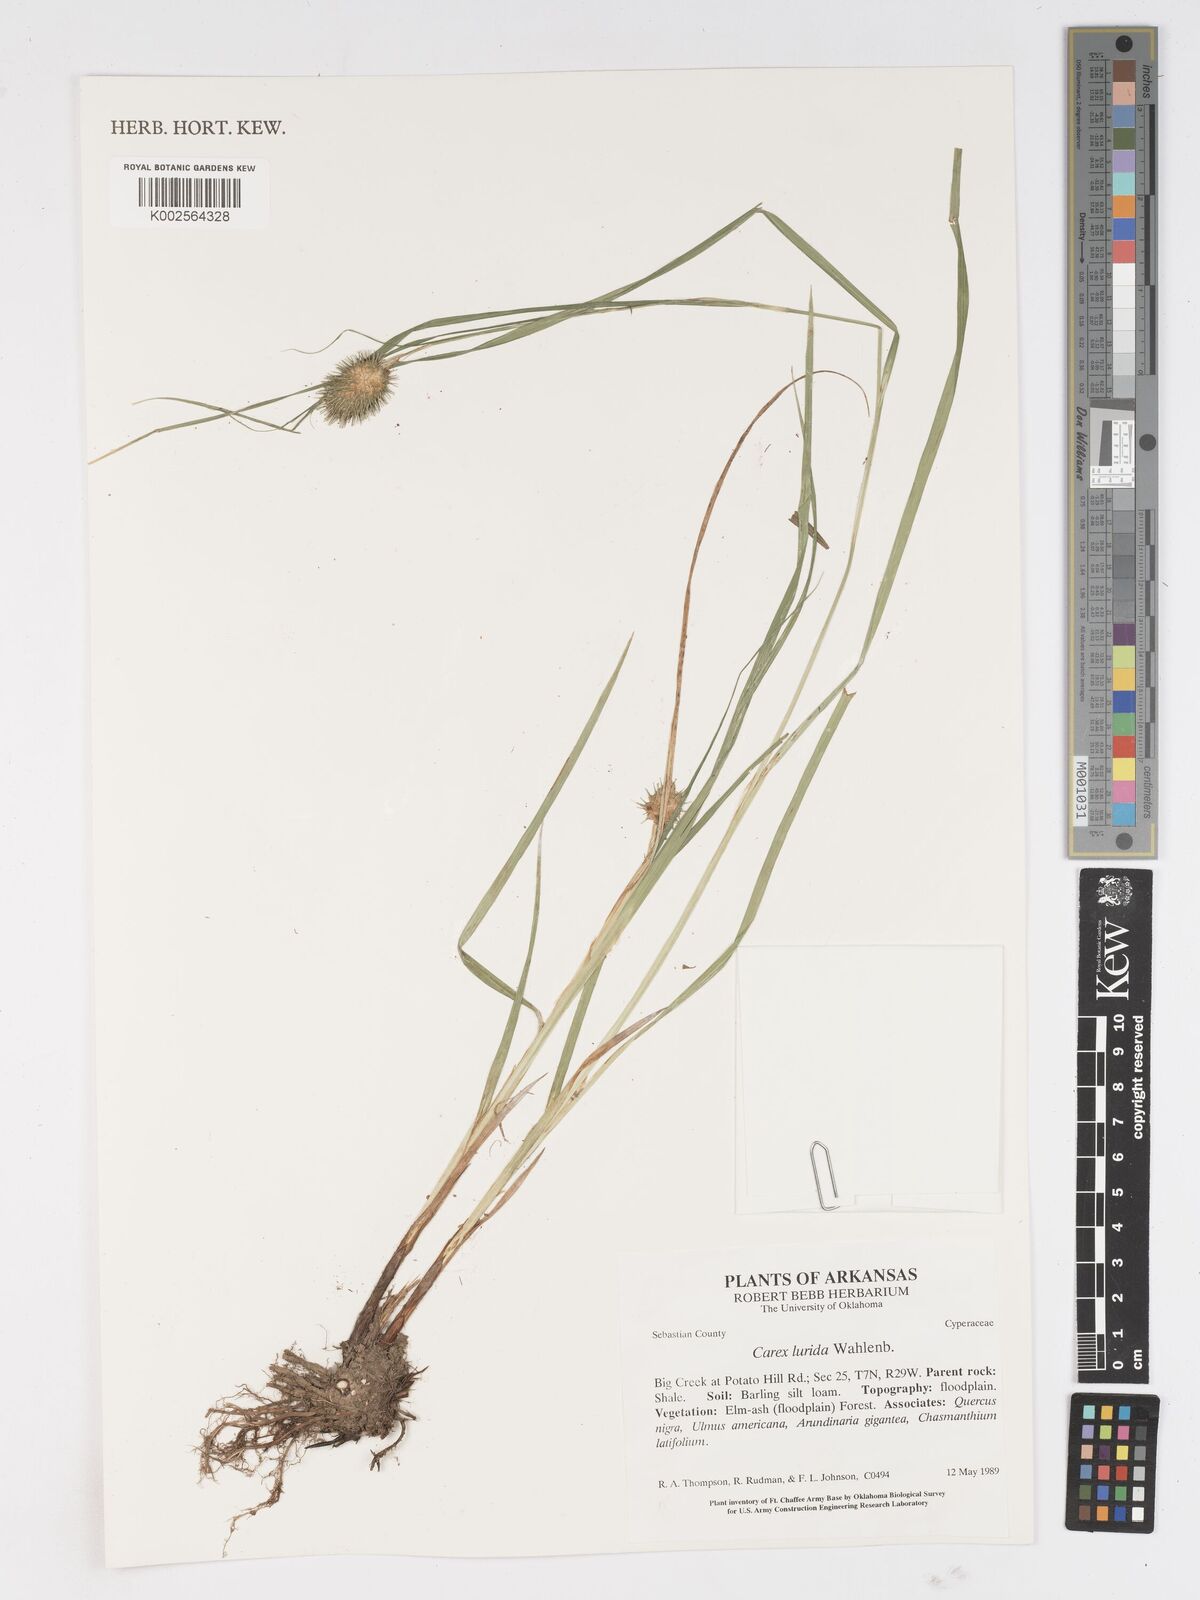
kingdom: Plantae
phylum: Tracheophyta
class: Liliopsida
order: Poales
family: Cyperaceae
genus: Carex
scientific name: Carex lurida
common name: Sallow sedge
